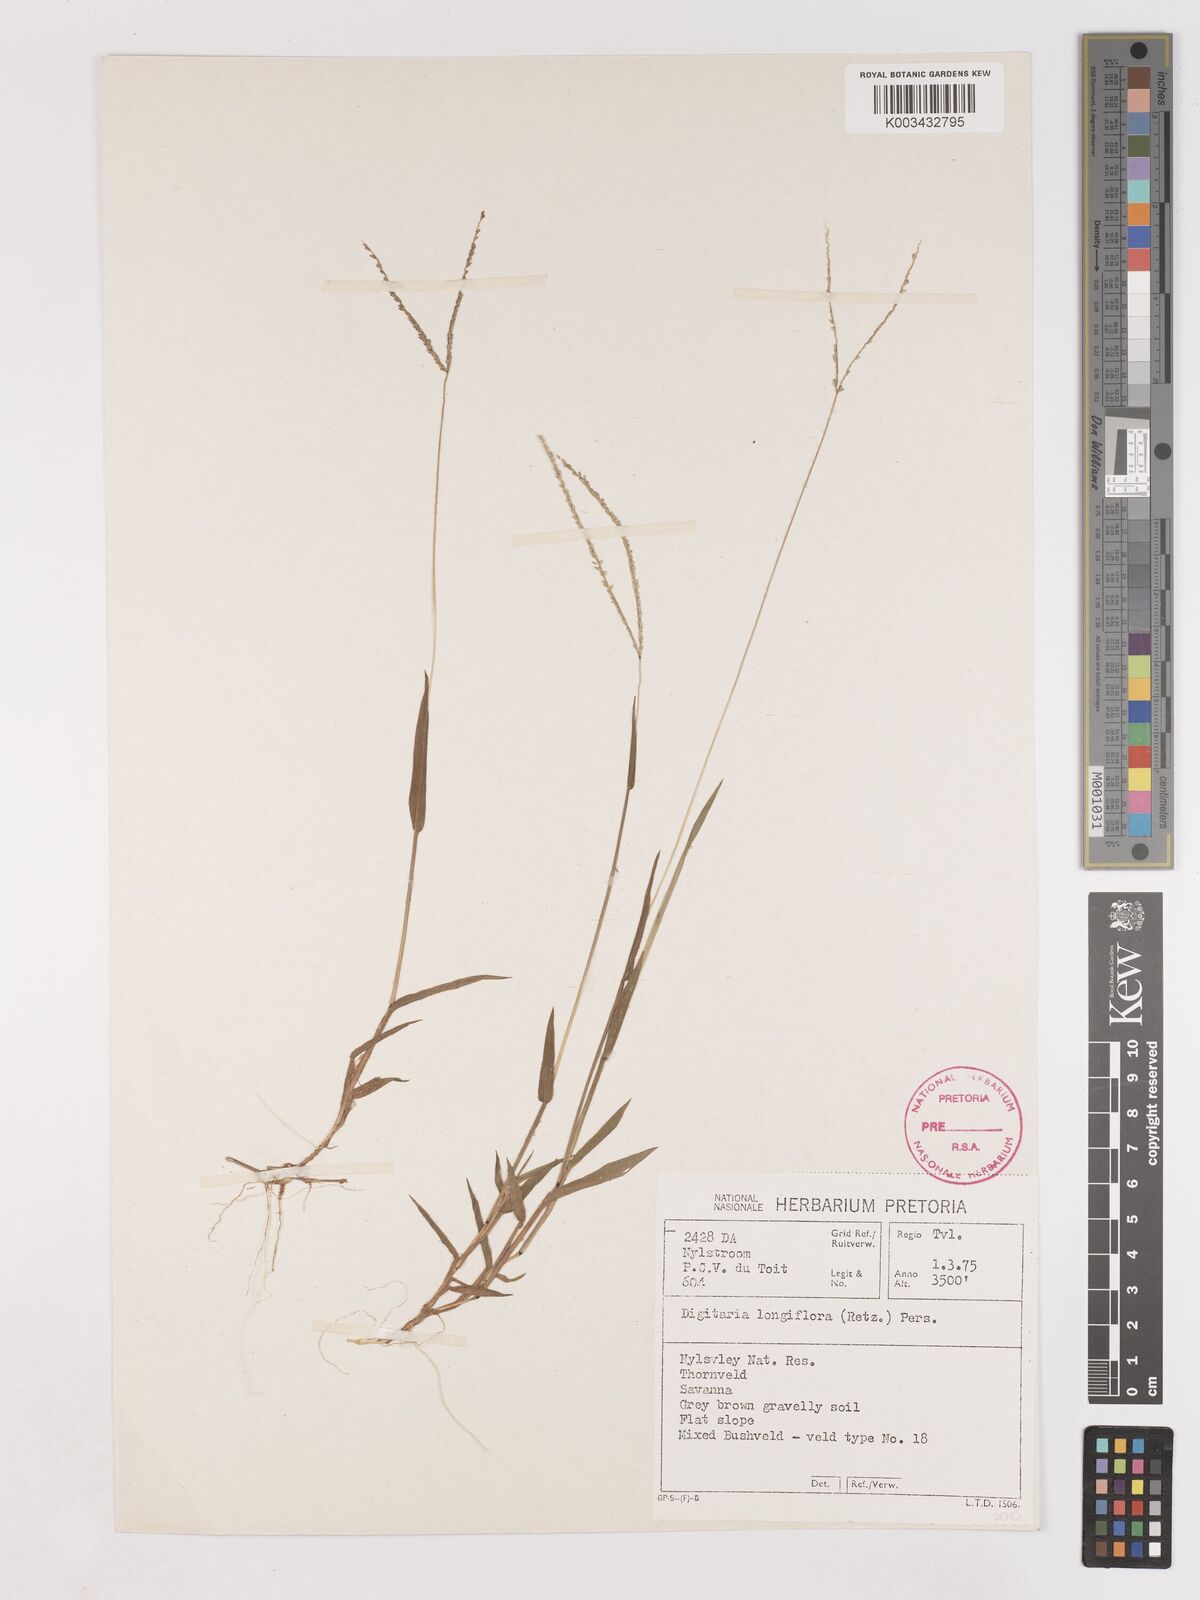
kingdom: Plantae
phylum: Tracheophyta
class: Liliopsida
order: Poales
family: Poaceae
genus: Digitaria
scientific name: Digitaria longiflora
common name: Wire crabgrass
